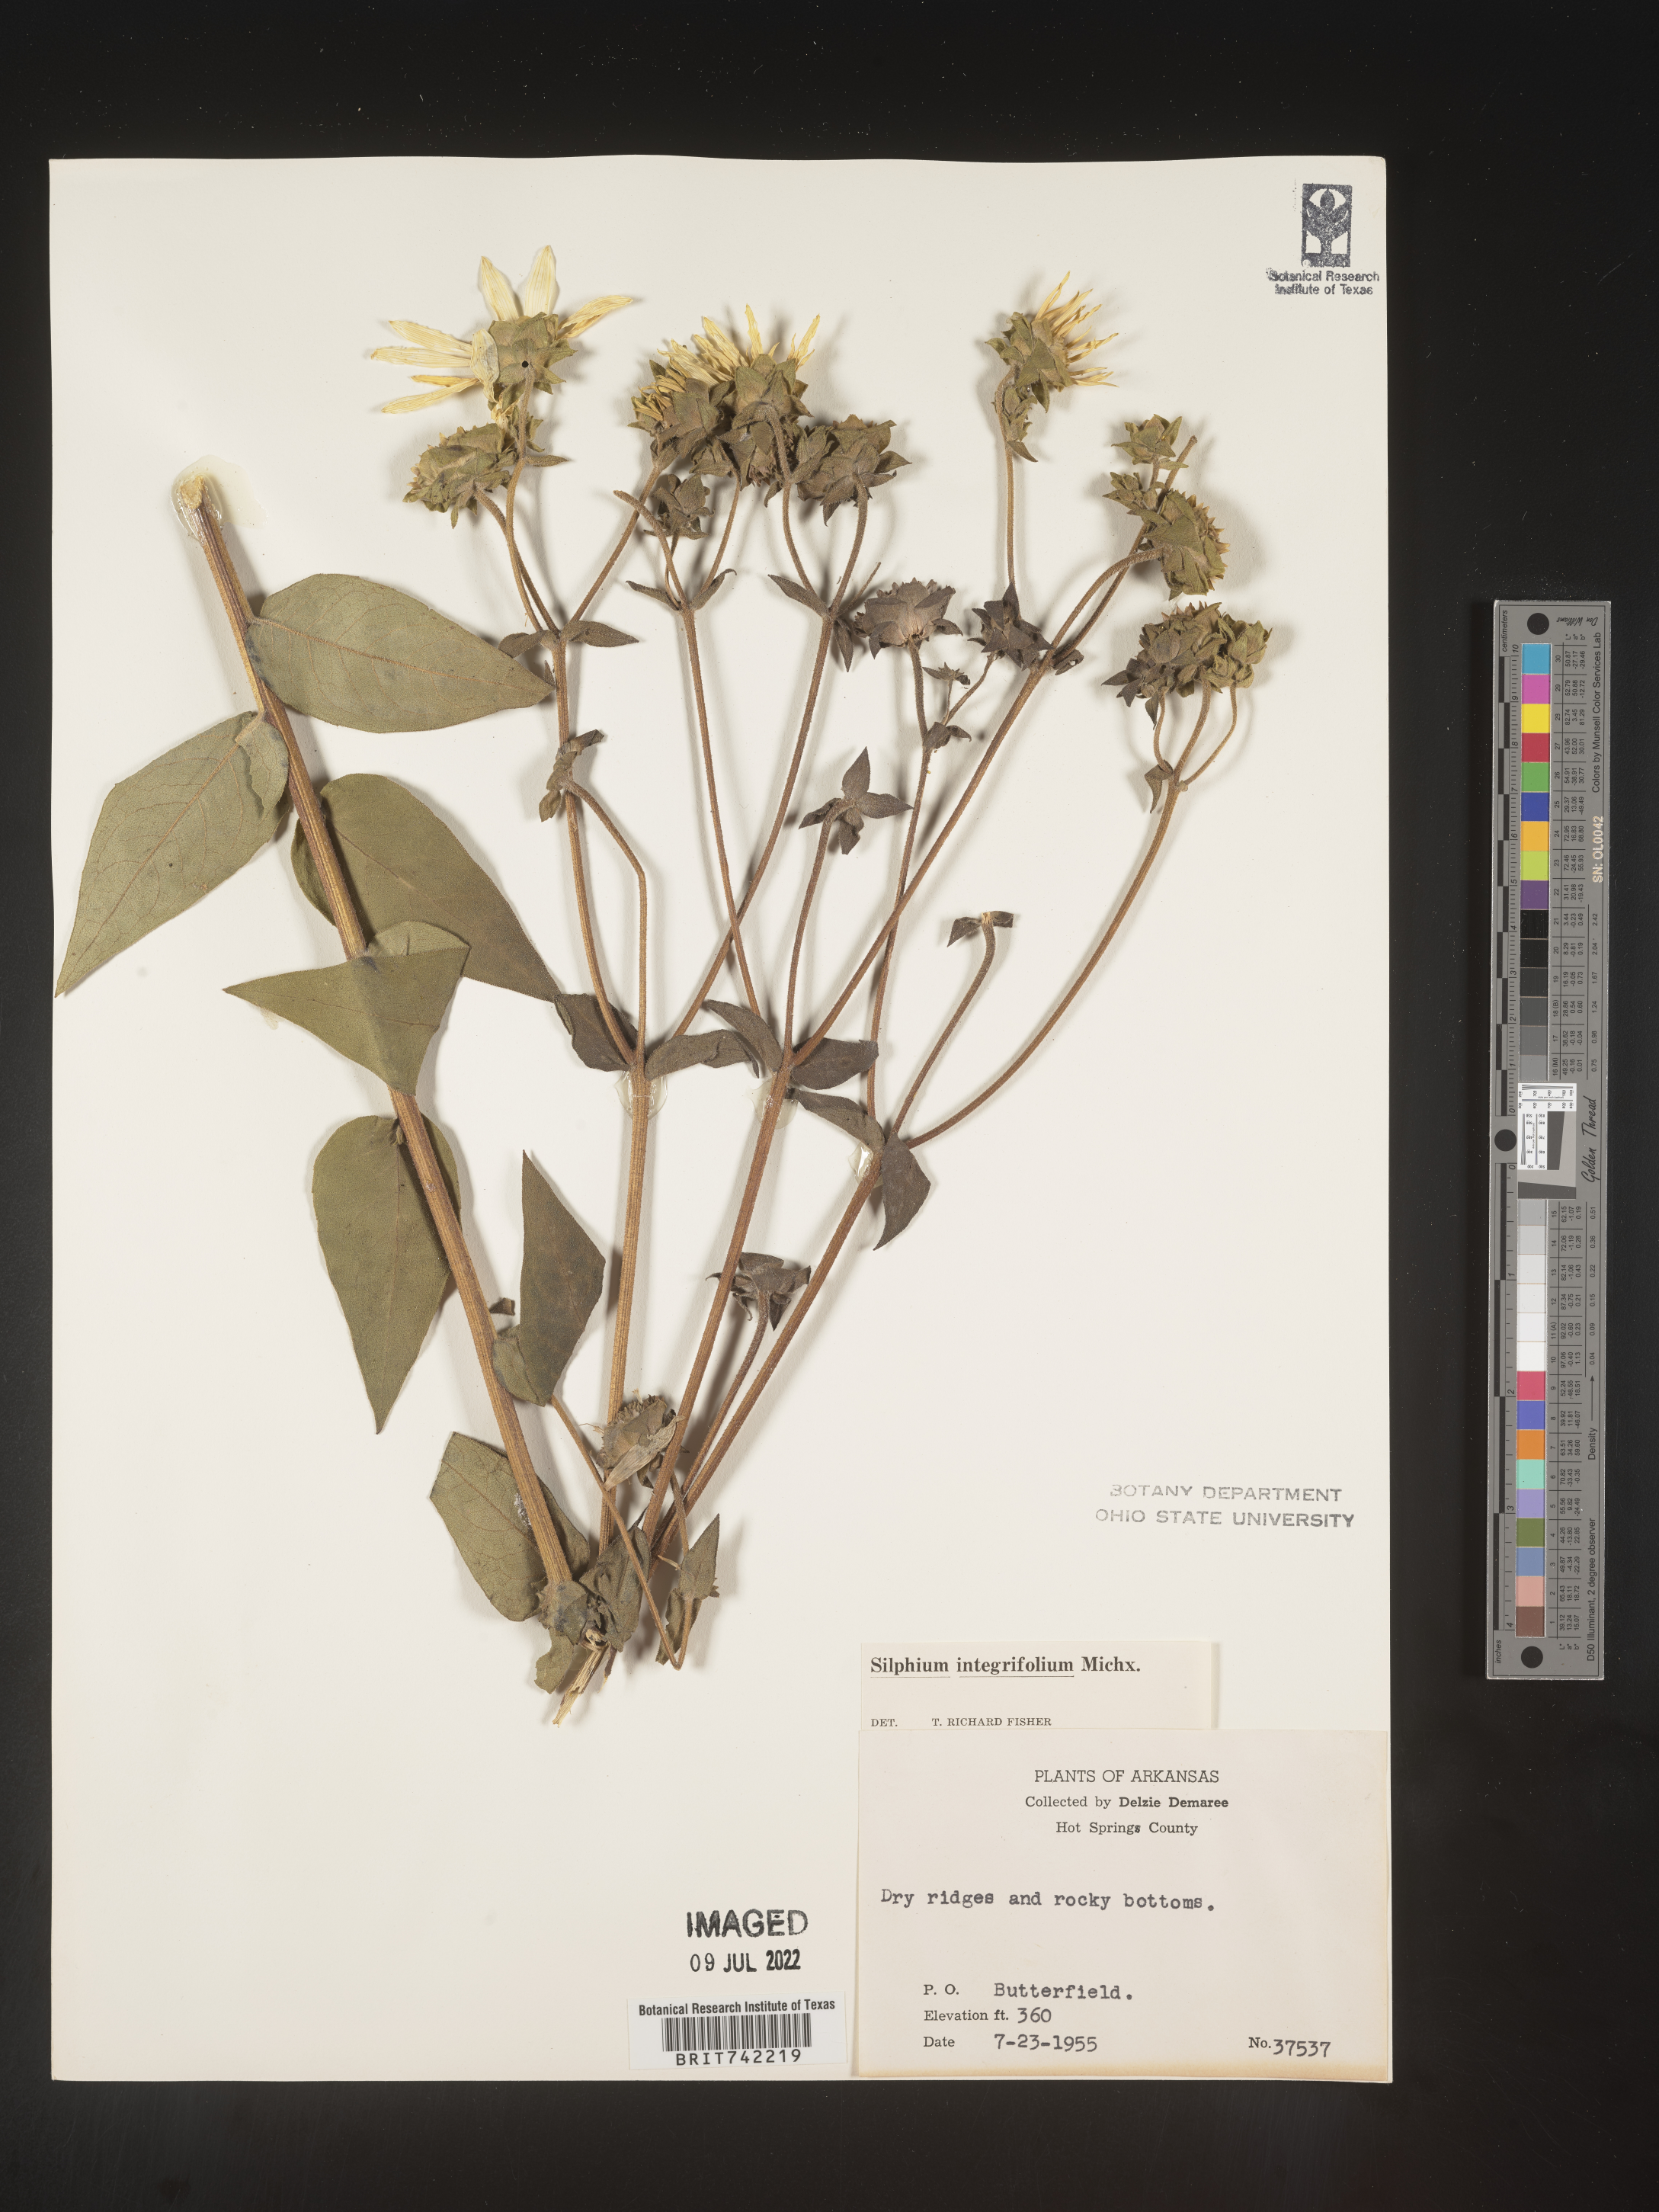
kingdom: Plantae
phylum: Tracheophyta
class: Magnoliopsida
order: Asterales
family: Asteraceae
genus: Silphium
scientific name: Silphium integrifolium
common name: Whole-leaf rosinweed
